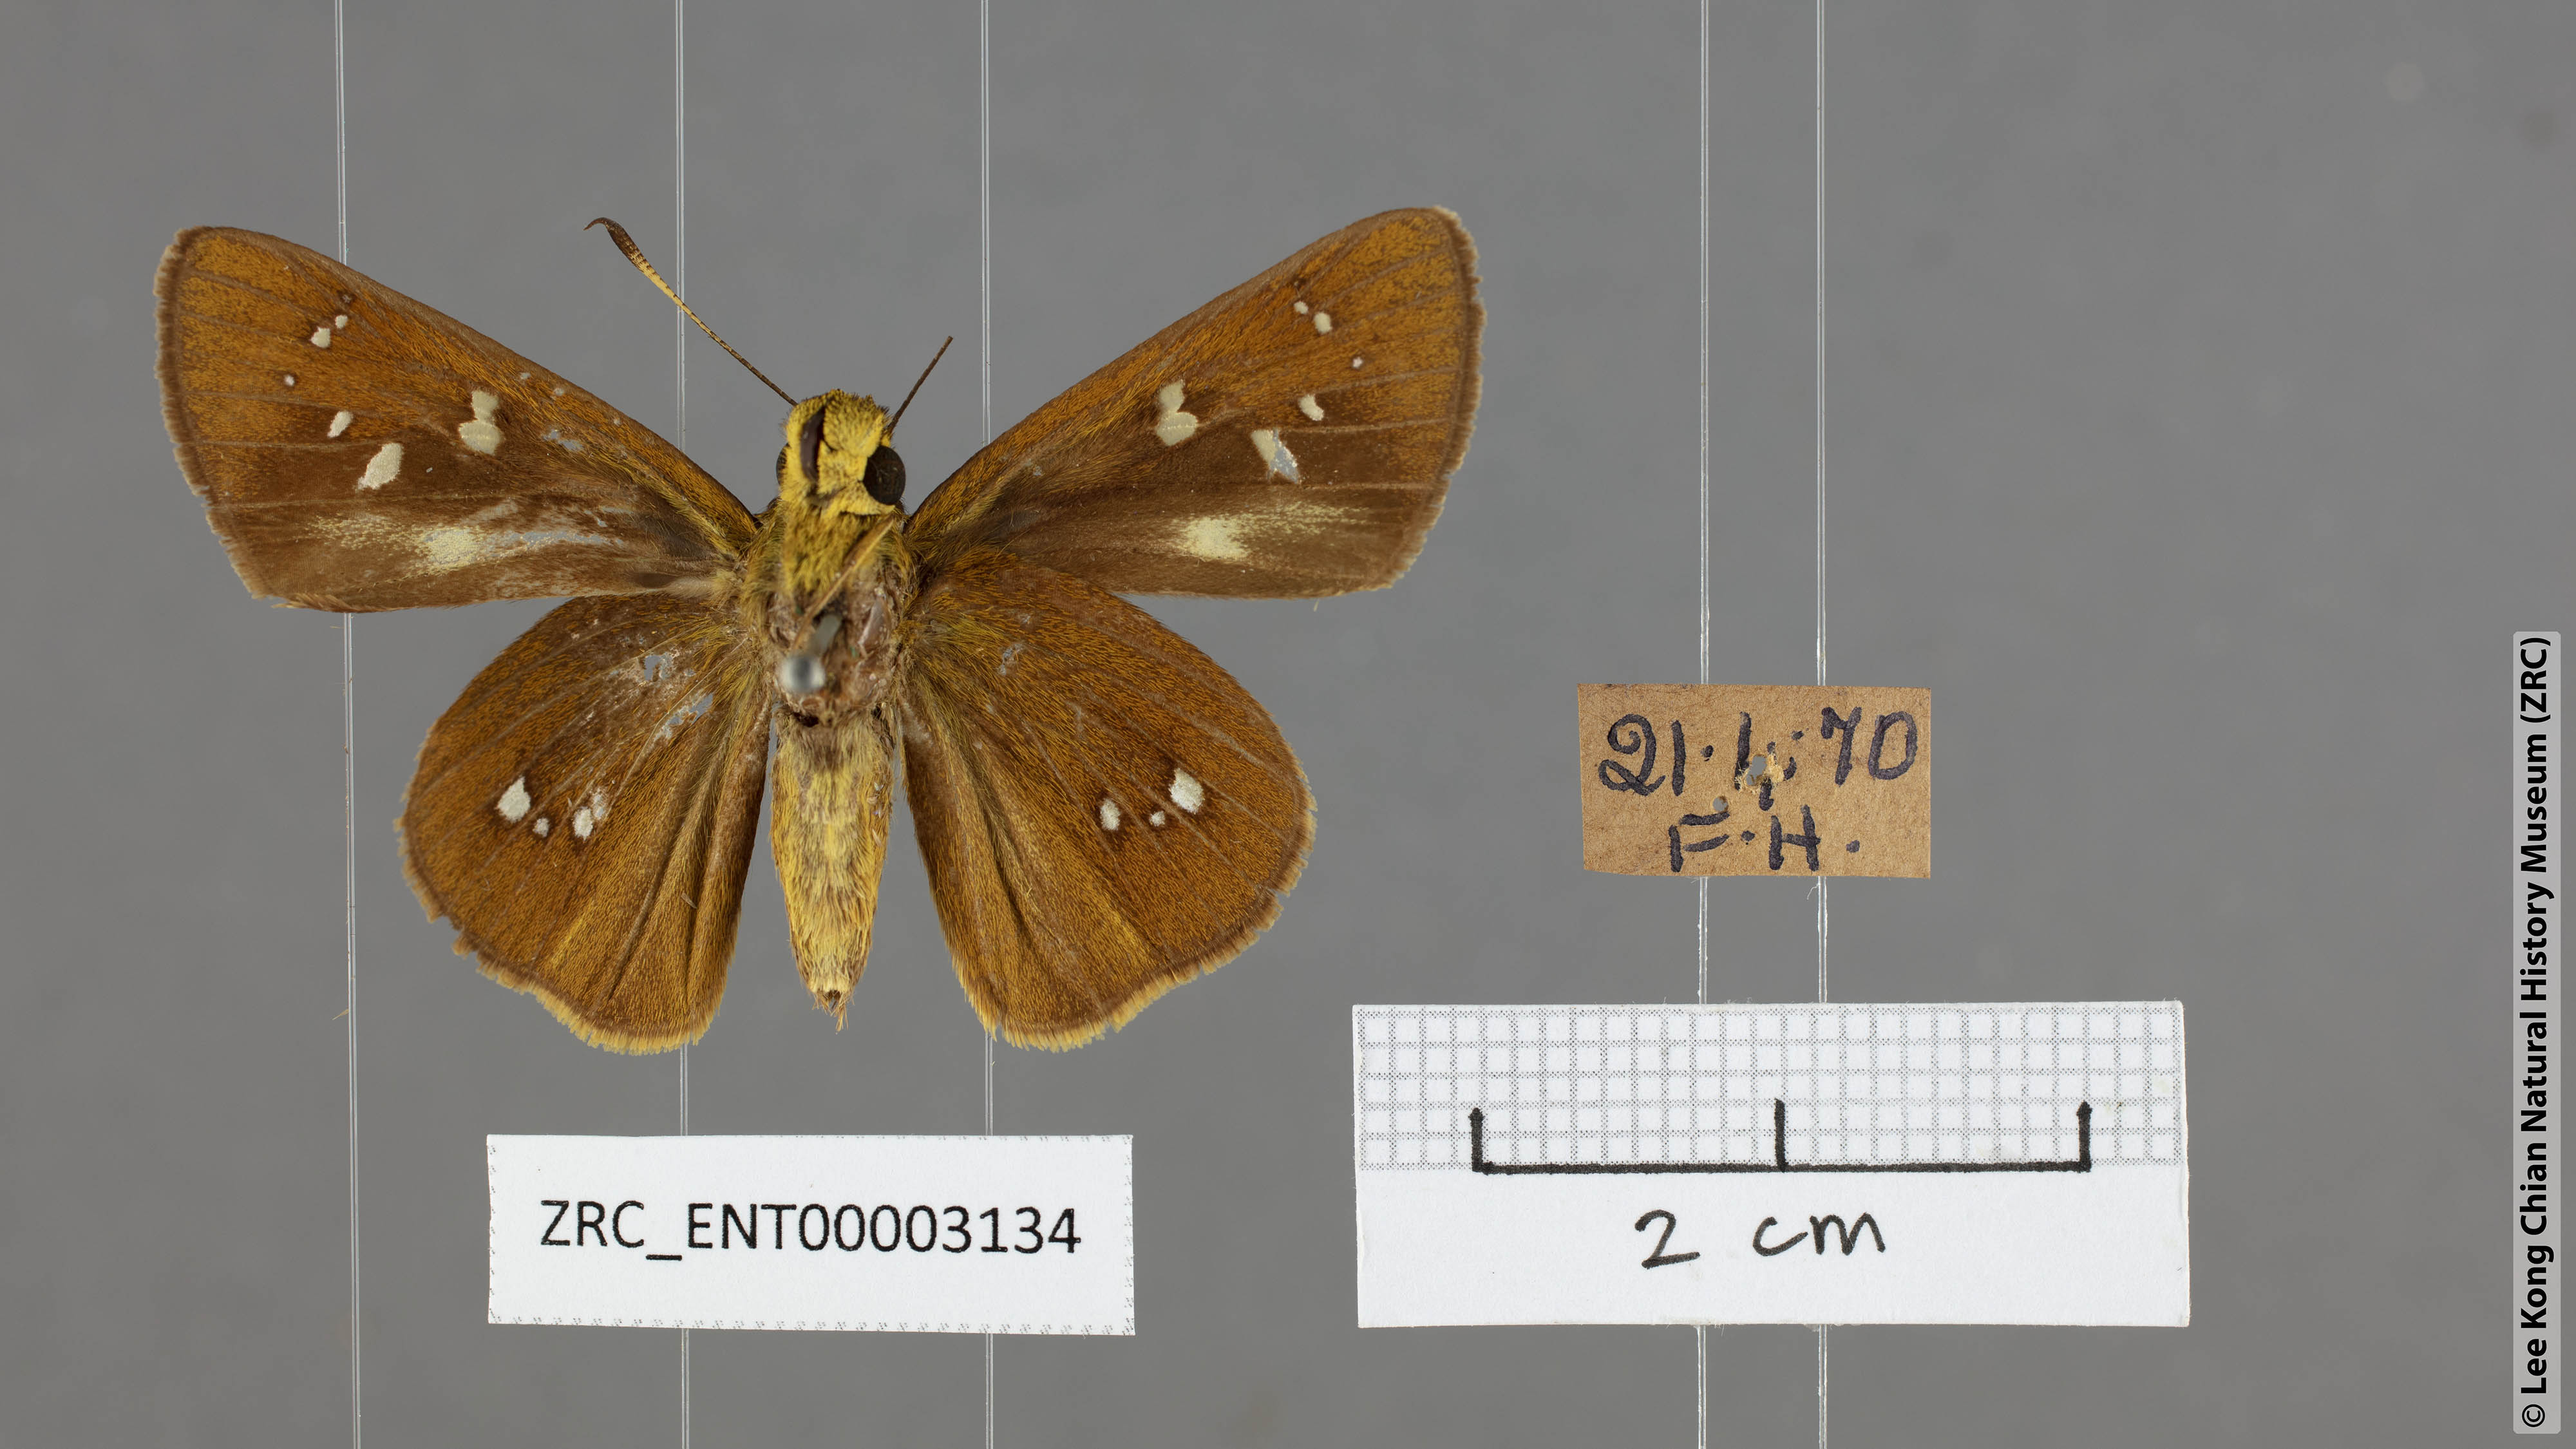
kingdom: Animalia
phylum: Arthropoda
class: Insecta
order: Lepidoptera
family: Hesperiidae
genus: Baoris
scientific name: Baoris farri
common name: Paintbrush swift
